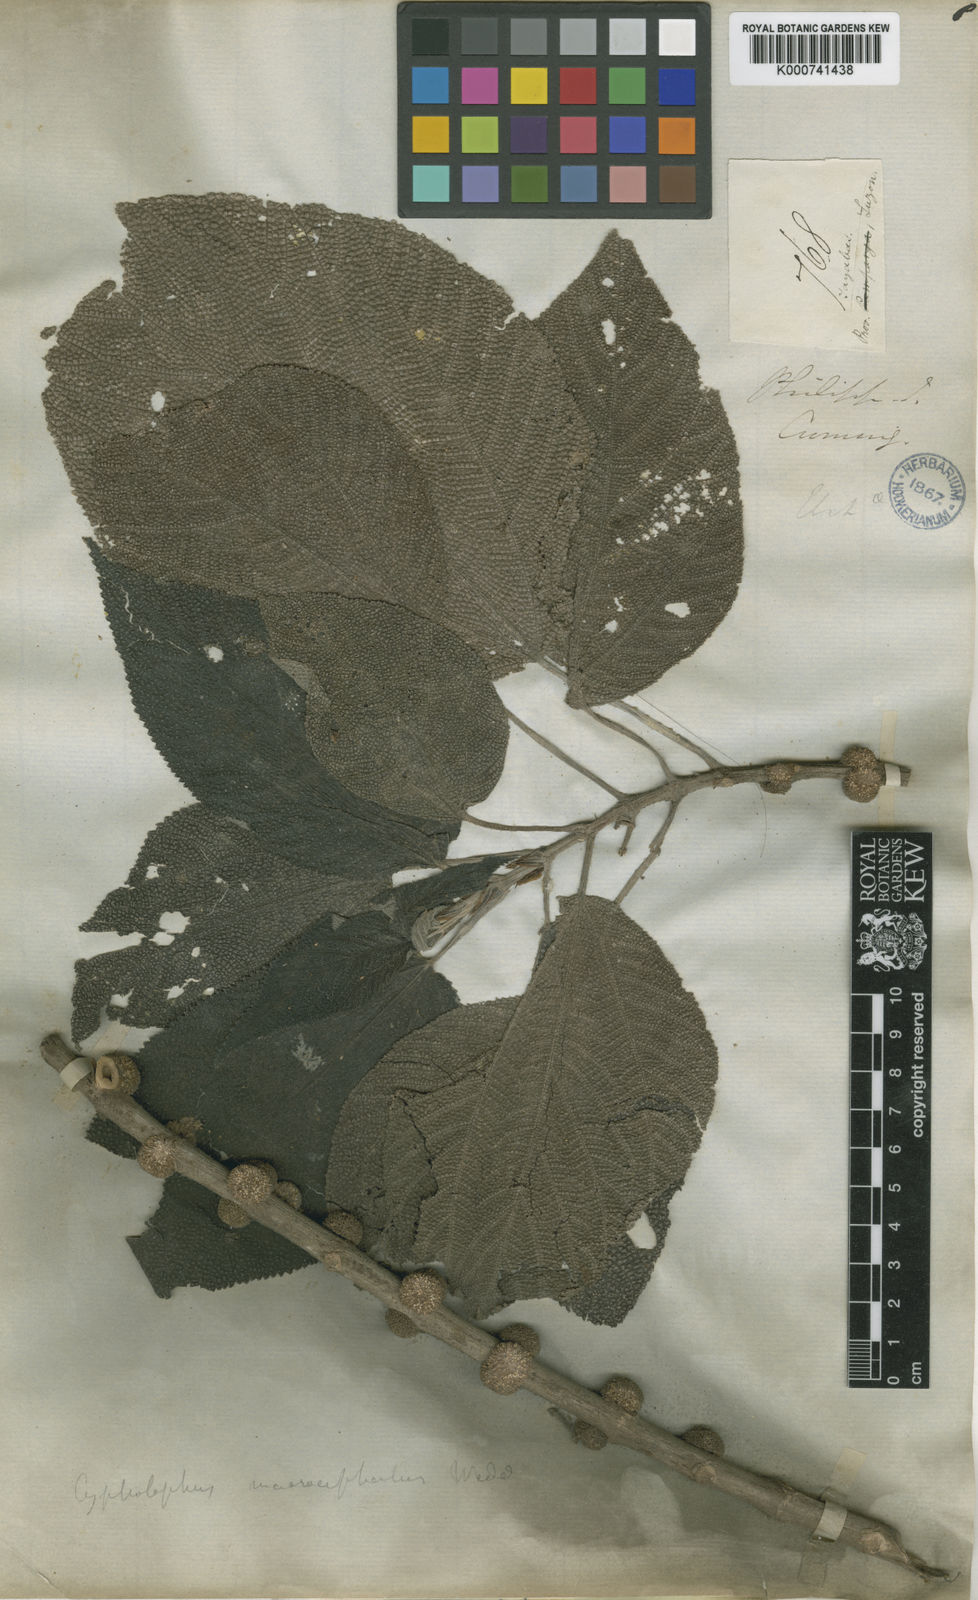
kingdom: Plantae
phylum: Tracheophyta
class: Magnoliopsida
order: Rosales
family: Urticaceae
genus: Cypholophus
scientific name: Cypholophus macrocephalus
